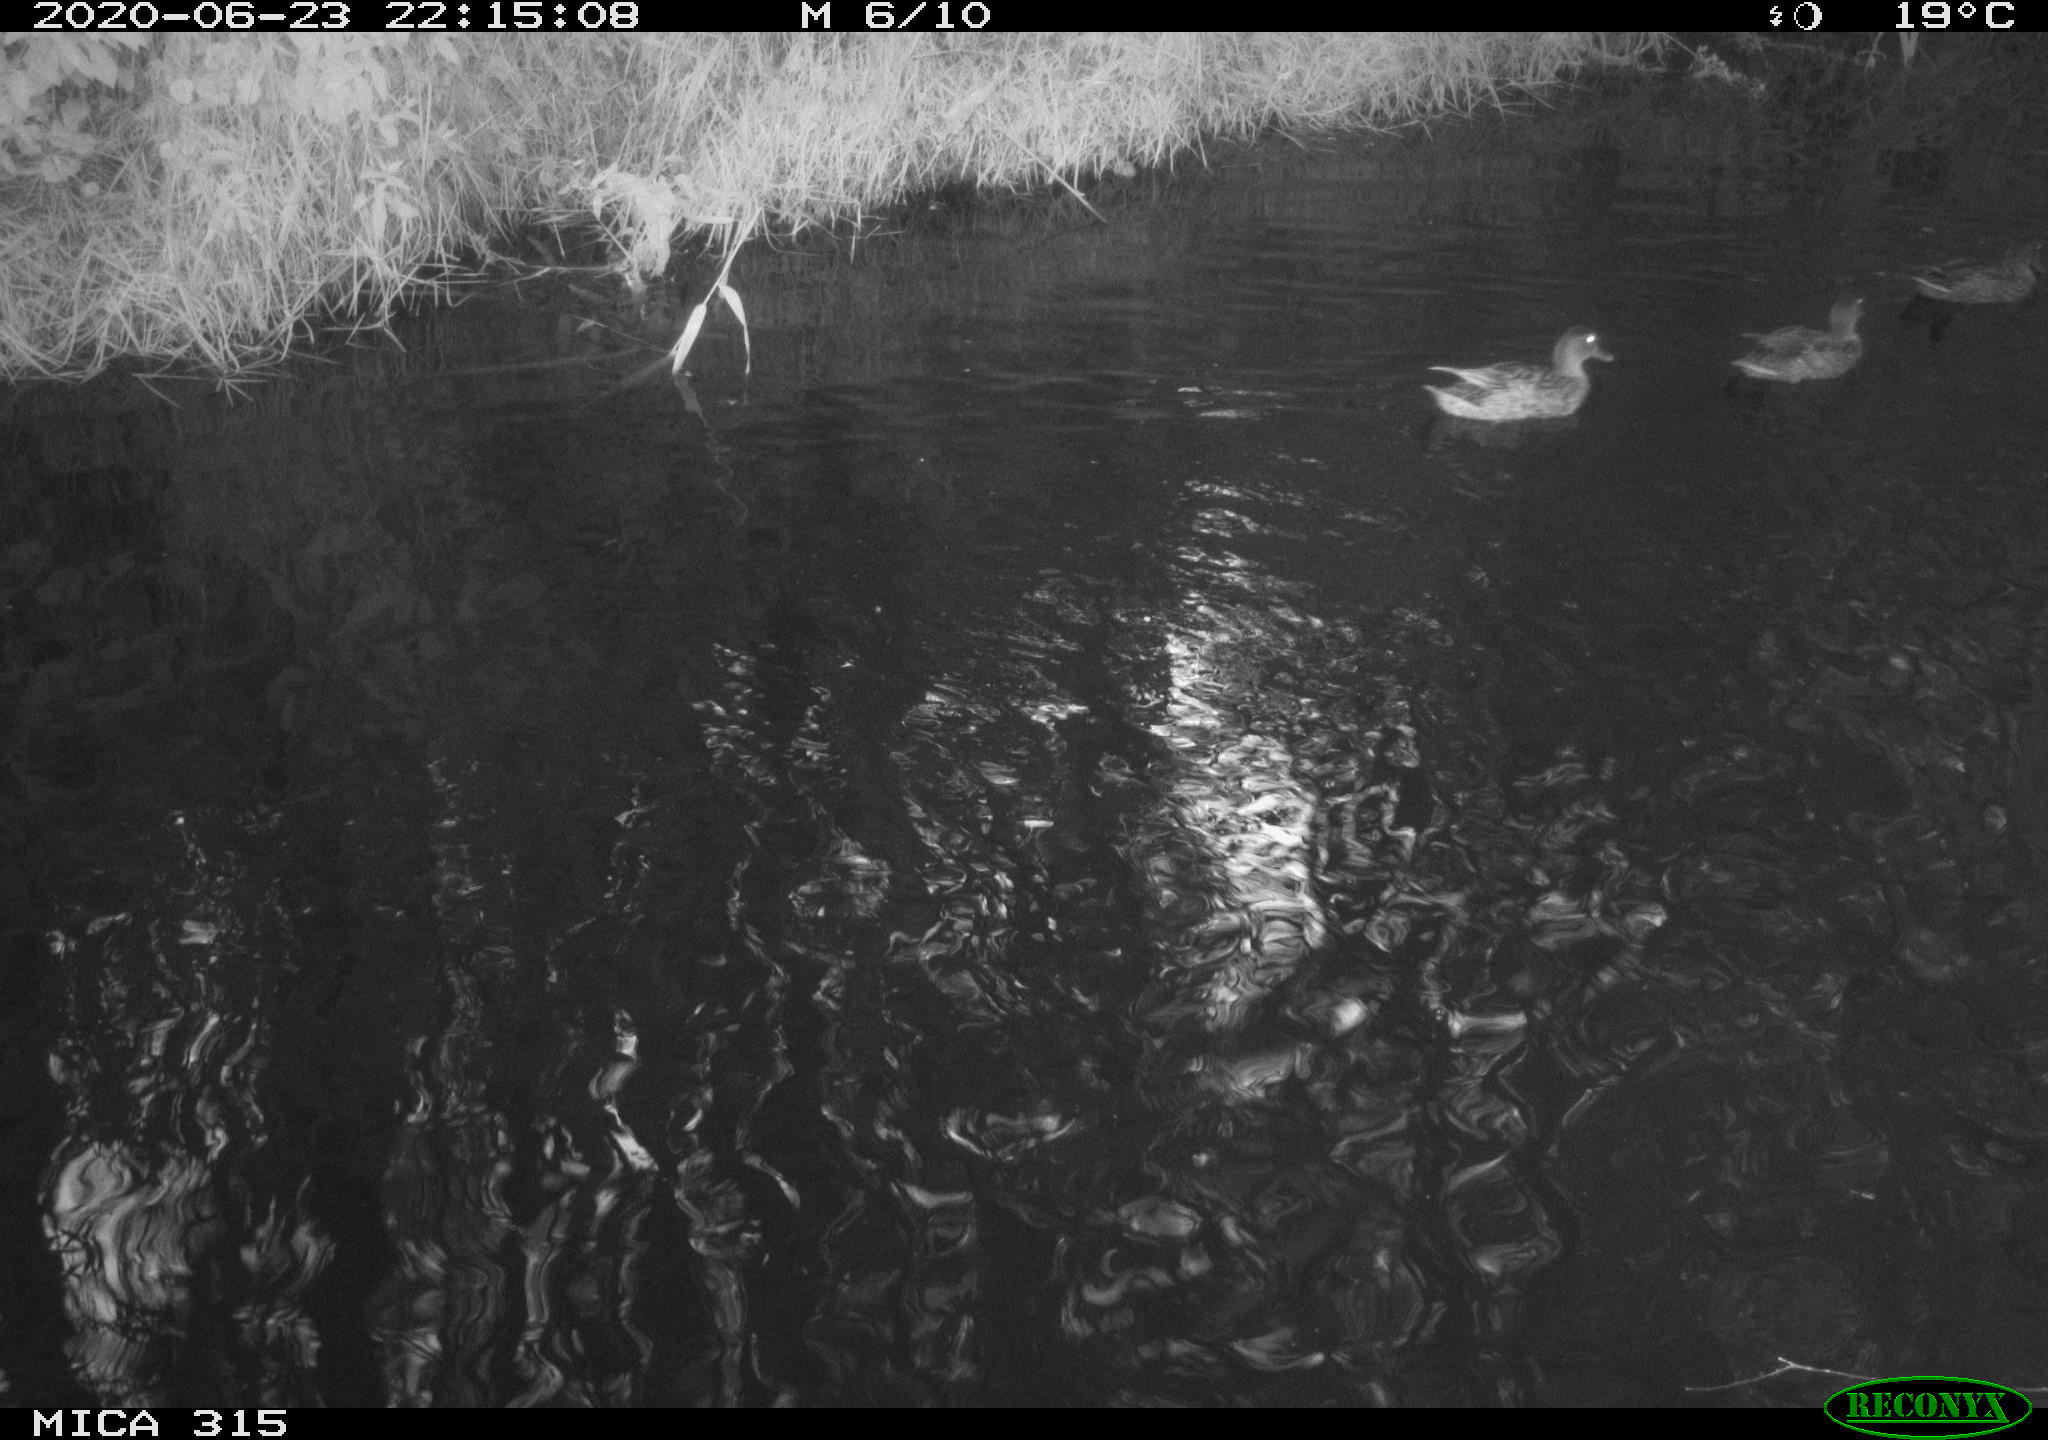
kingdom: Animalia
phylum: Chordata
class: Aves
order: Anseriformes
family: Anatidae
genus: Anas
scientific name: Anas platyrhynchos
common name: Mallard
